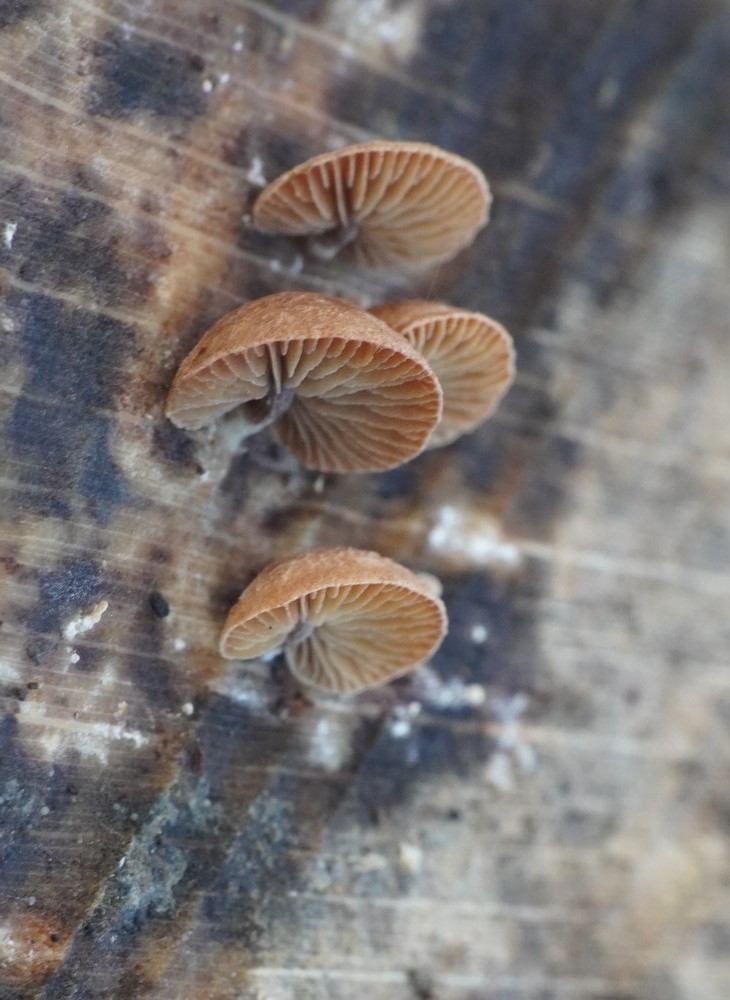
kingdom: Fungi
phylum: Basidiomycota
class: Agaricomycetes
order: Agaricales
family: Strophariaceae
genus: Deconica
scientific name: Deconica horizontalis
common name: ved-stråhat
